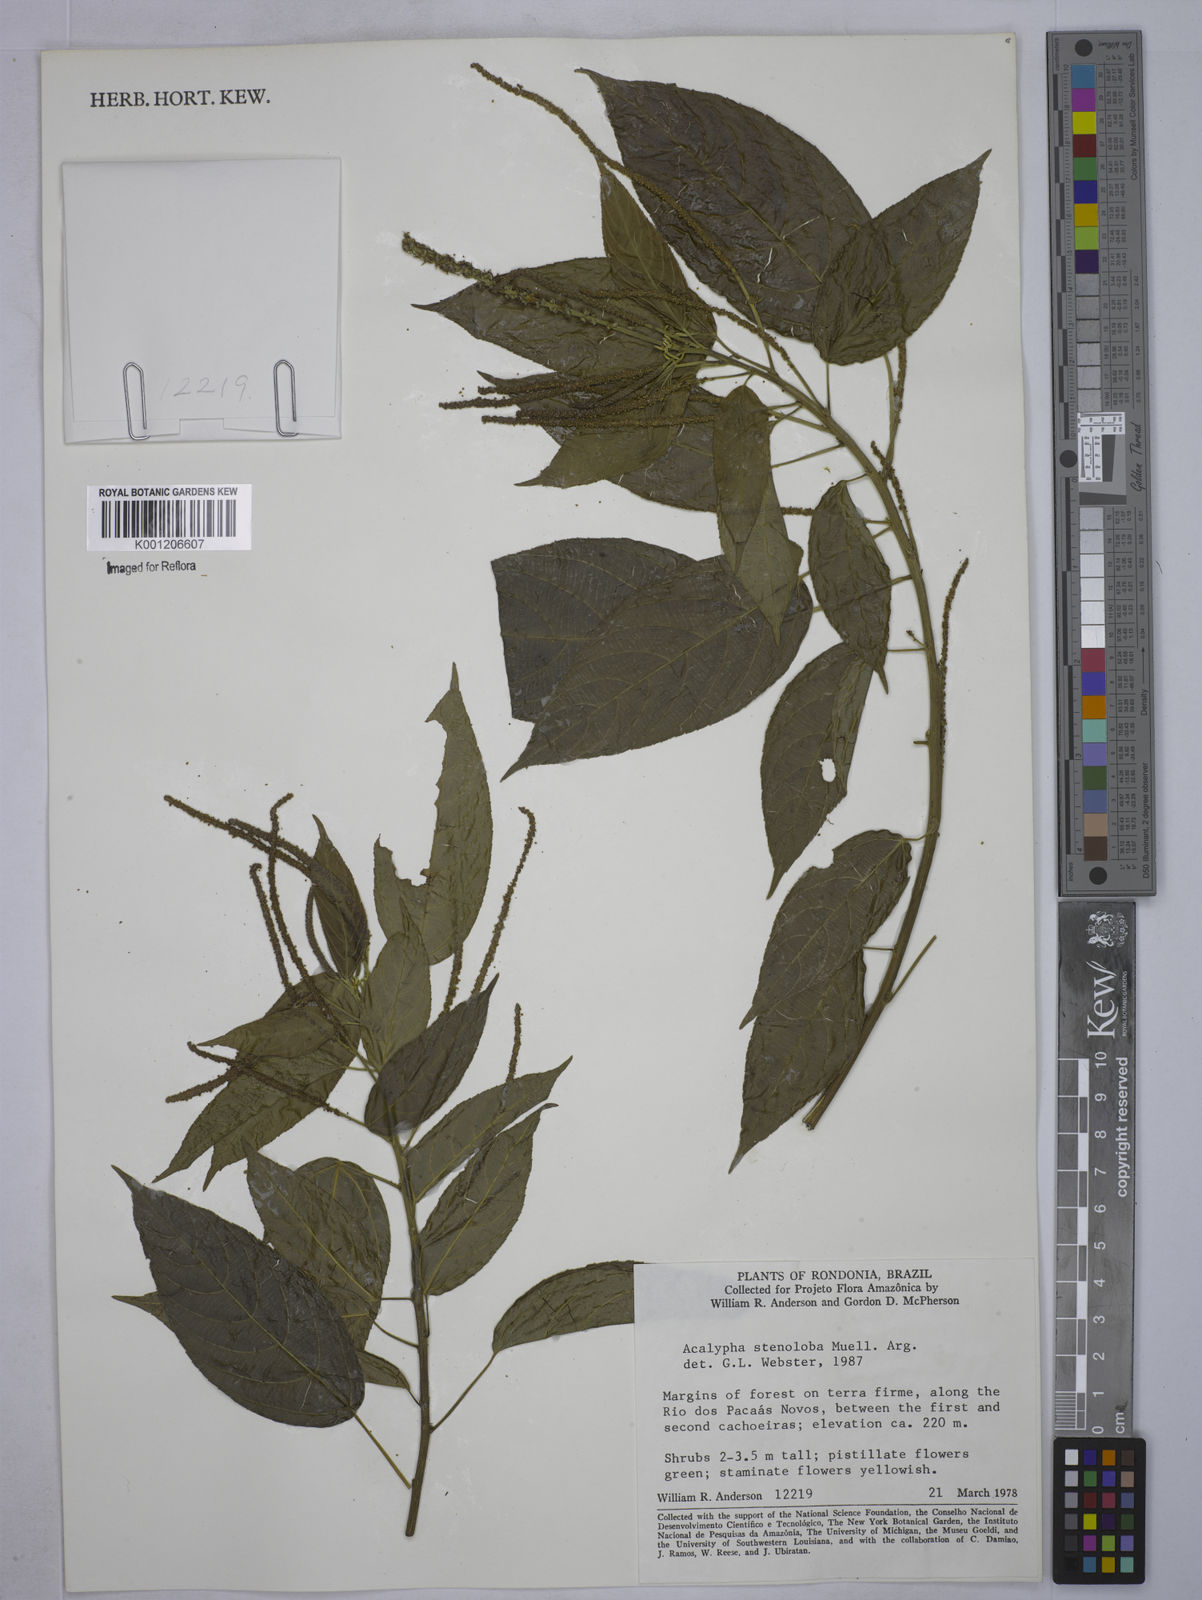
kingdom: Plantae
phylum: Tracheophyta
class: Magnoliopsida
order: Malpighiales
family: Euphorbiaceae
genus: Acalypha
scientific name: Acalypha
